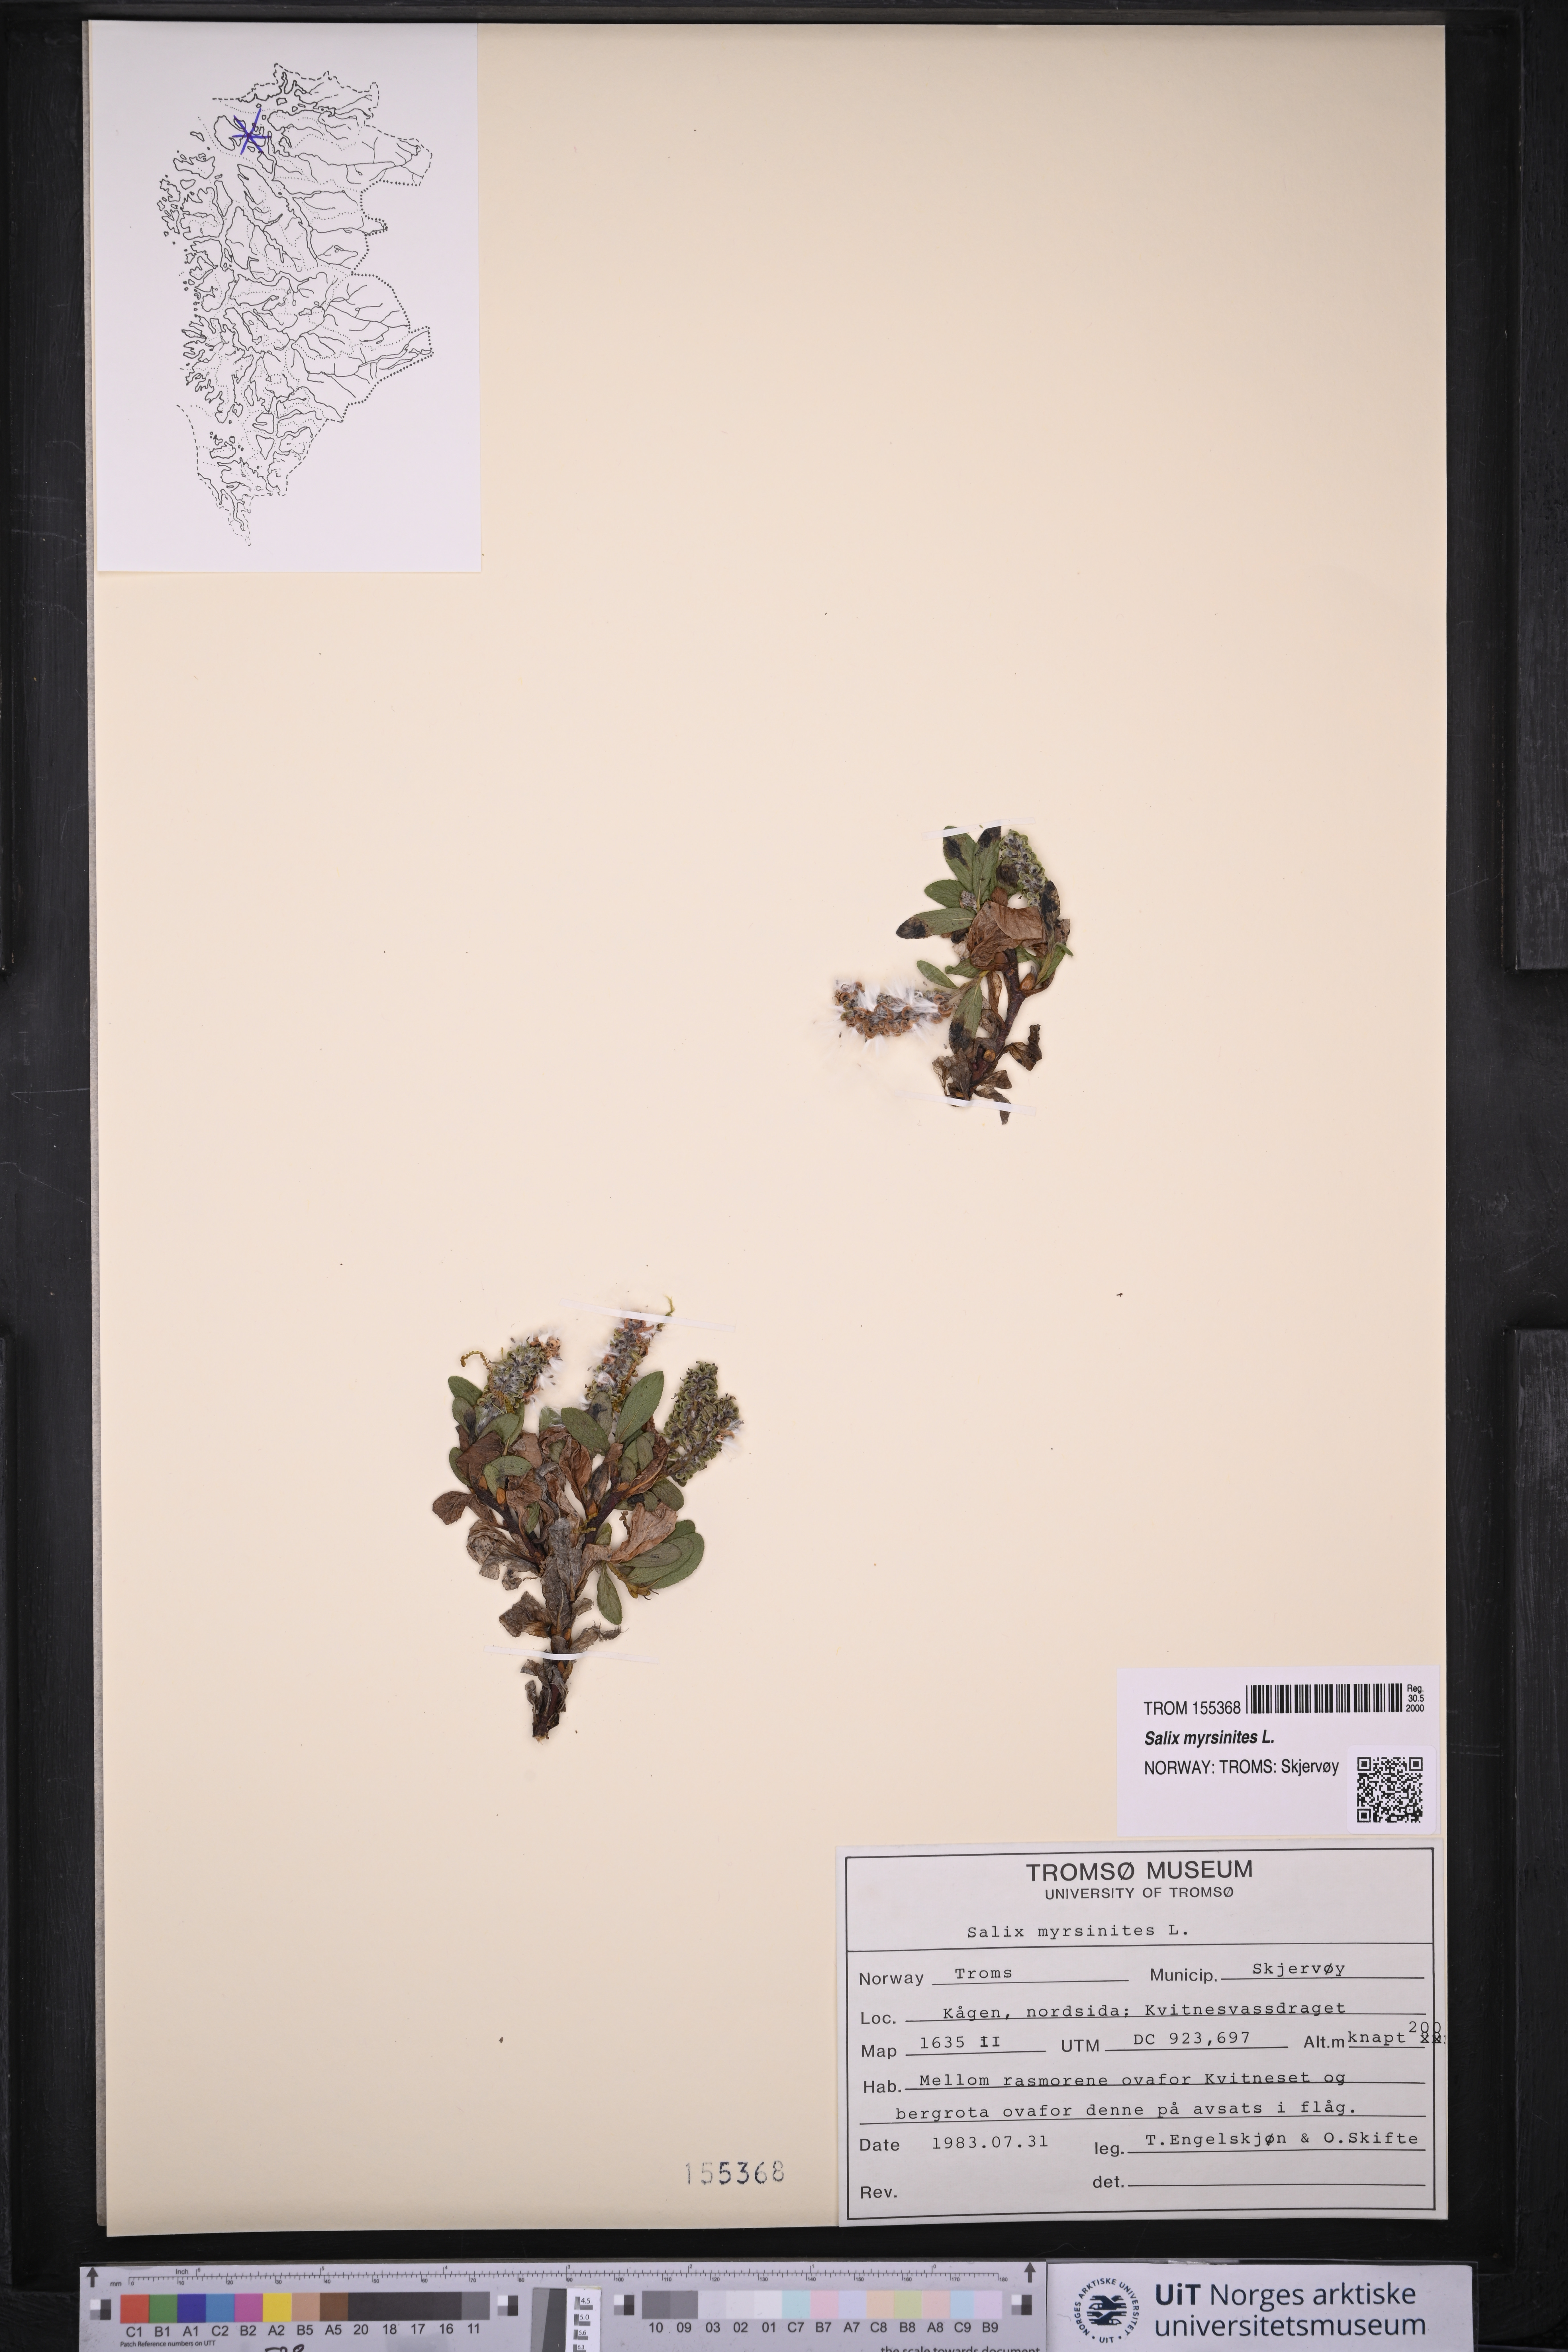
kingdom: Plantae
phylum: Tracheophyta
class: Magnoliopsida
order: Malpighiales
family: Salicaceae
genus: Salix
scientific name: Salix myrsinites
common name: Myrtle willow
